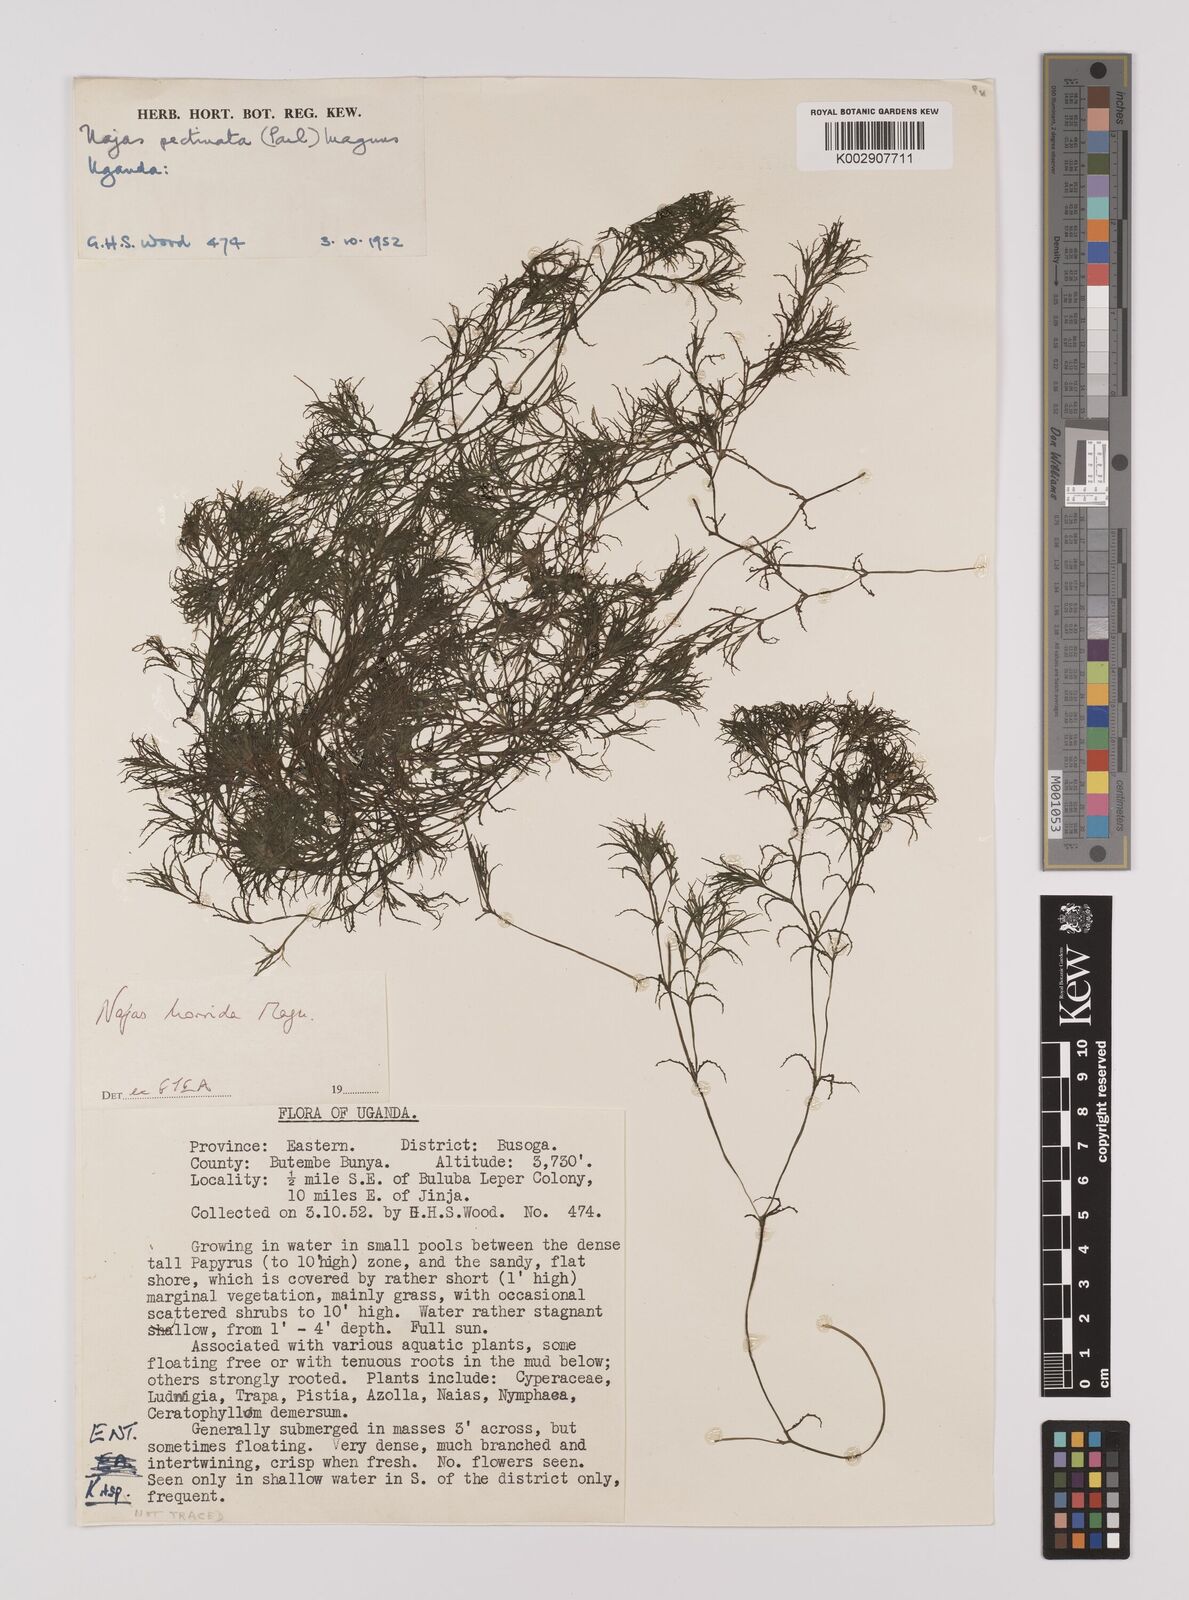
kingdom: Plantae
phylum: Tracheophyta
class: Liliopsida
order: Alismatales
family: Hydrocharitaceae
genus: Najas
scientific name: Najas horrida
